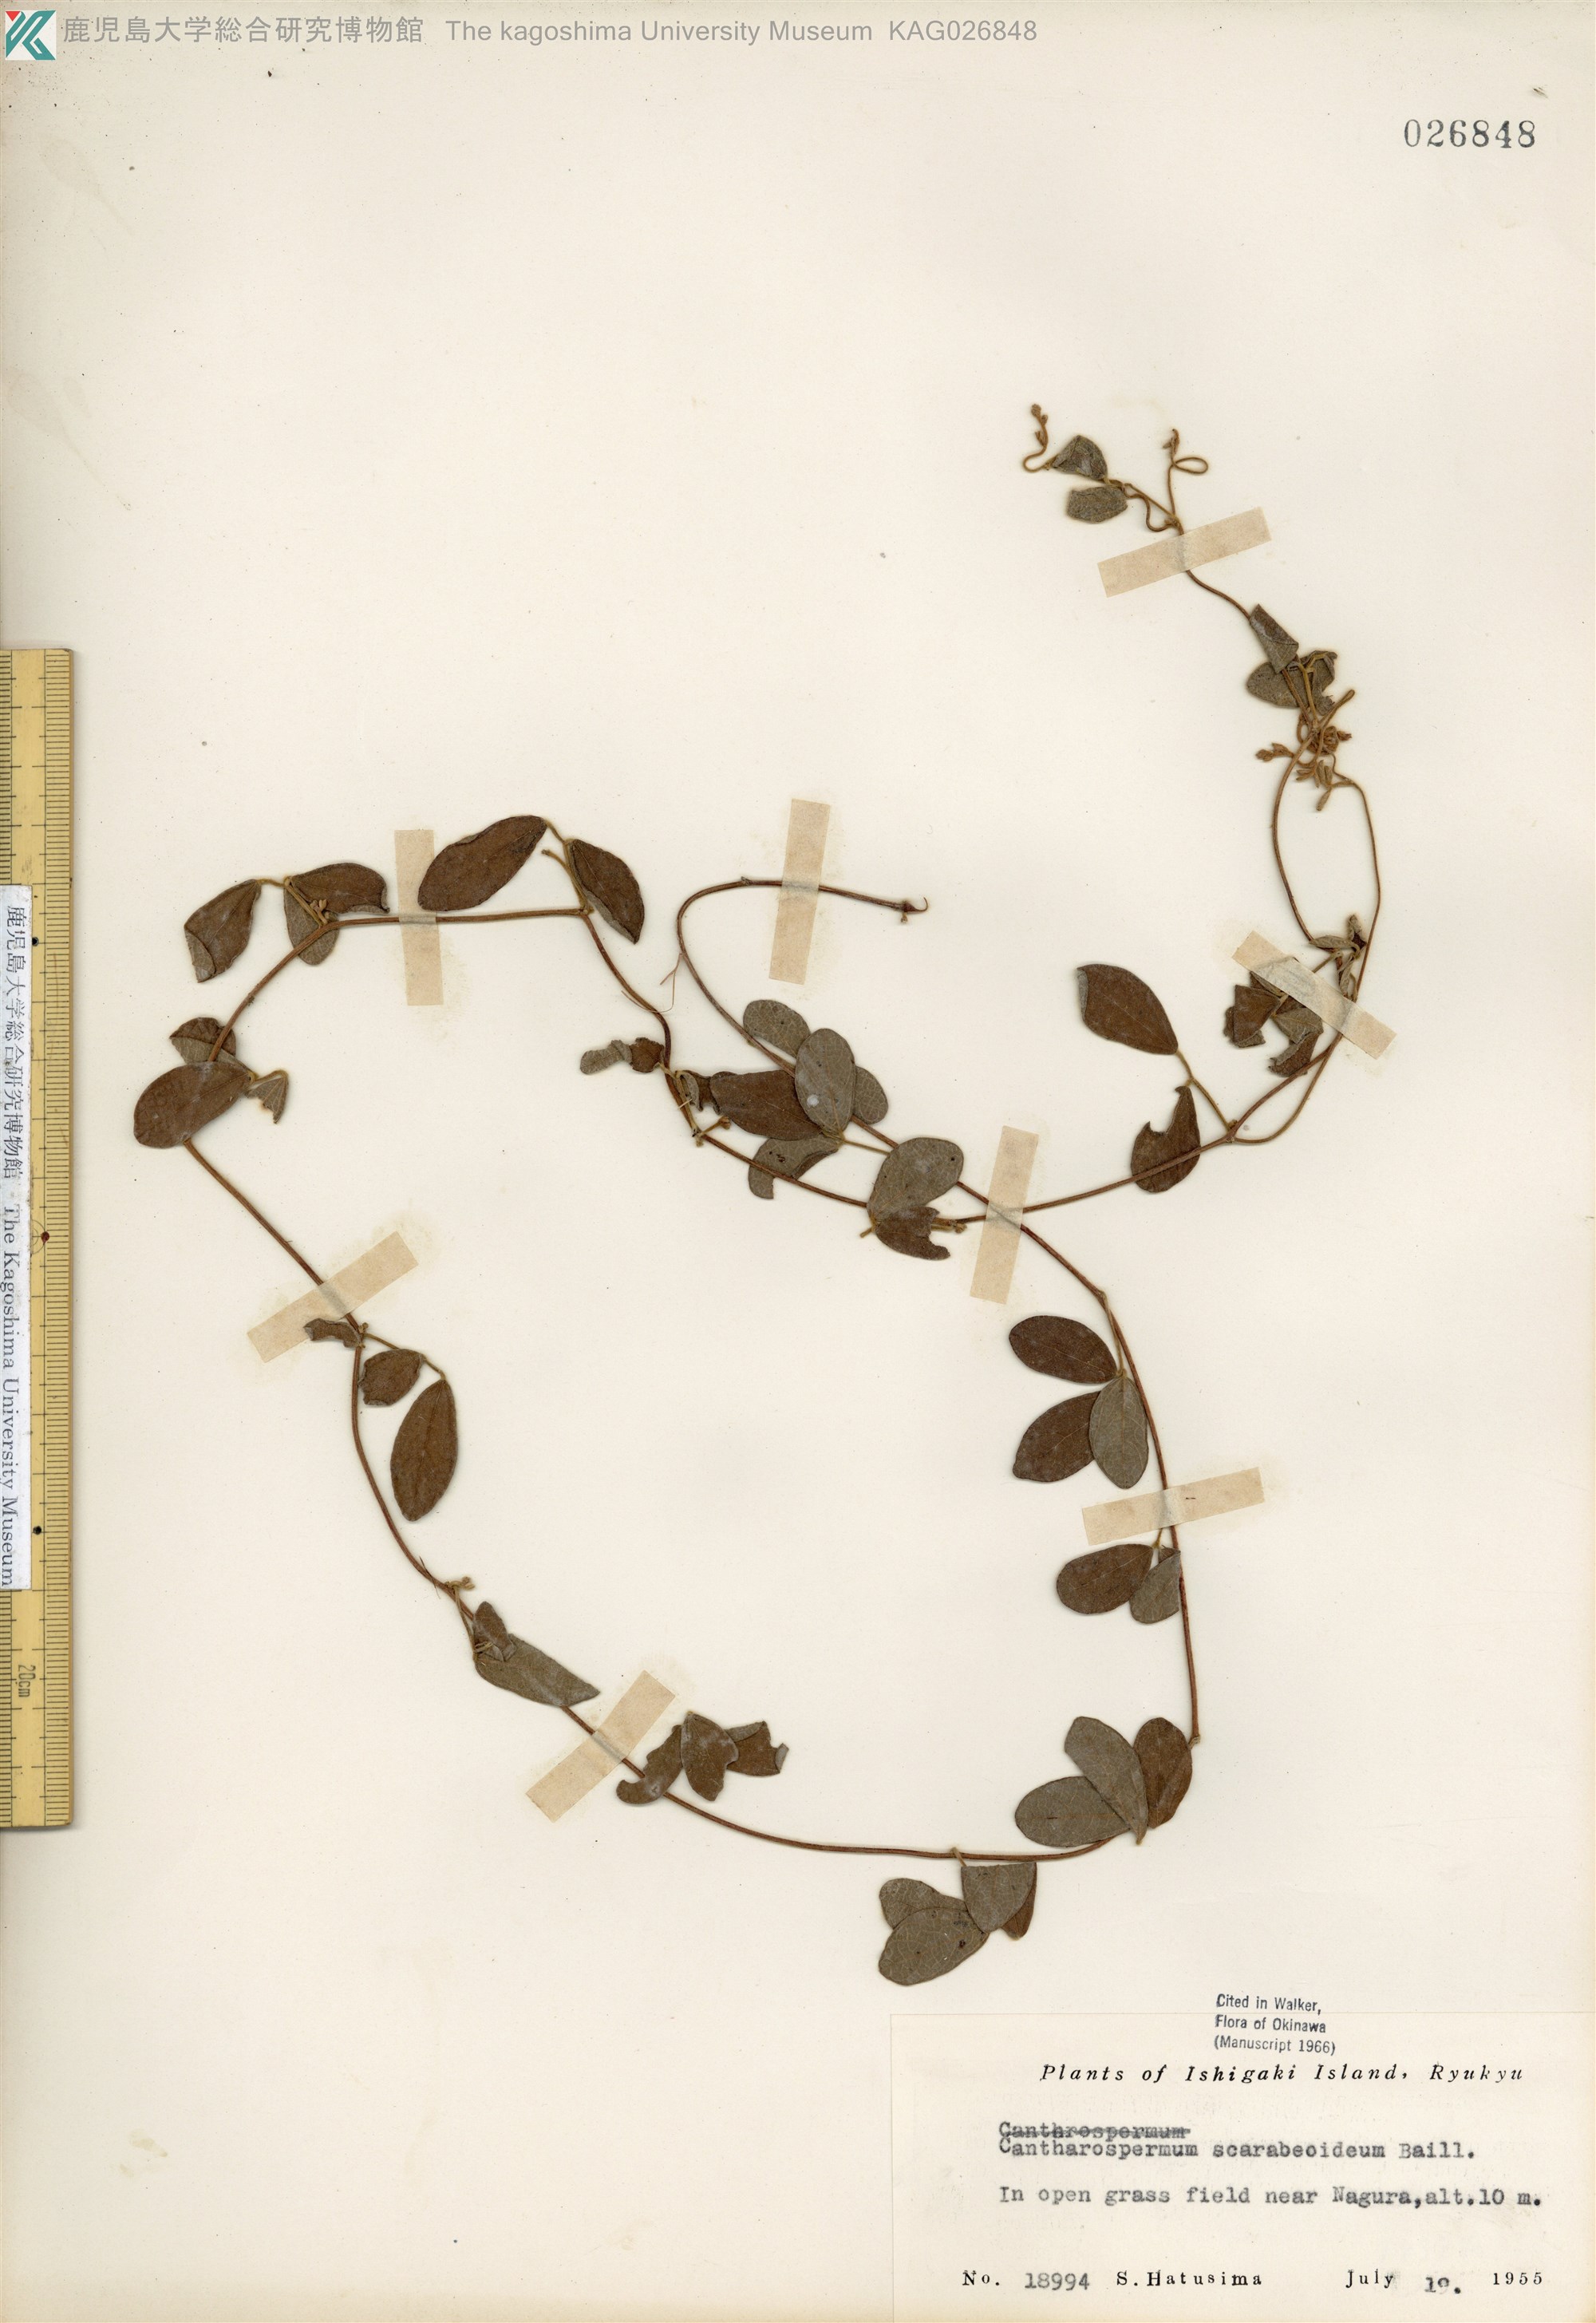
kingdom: Plantae
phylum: Tracheophyta
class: Magnoliopsida
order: Fabales
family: Fabaceae
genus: Cajanus
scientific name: Cajanus scarabaeoides
